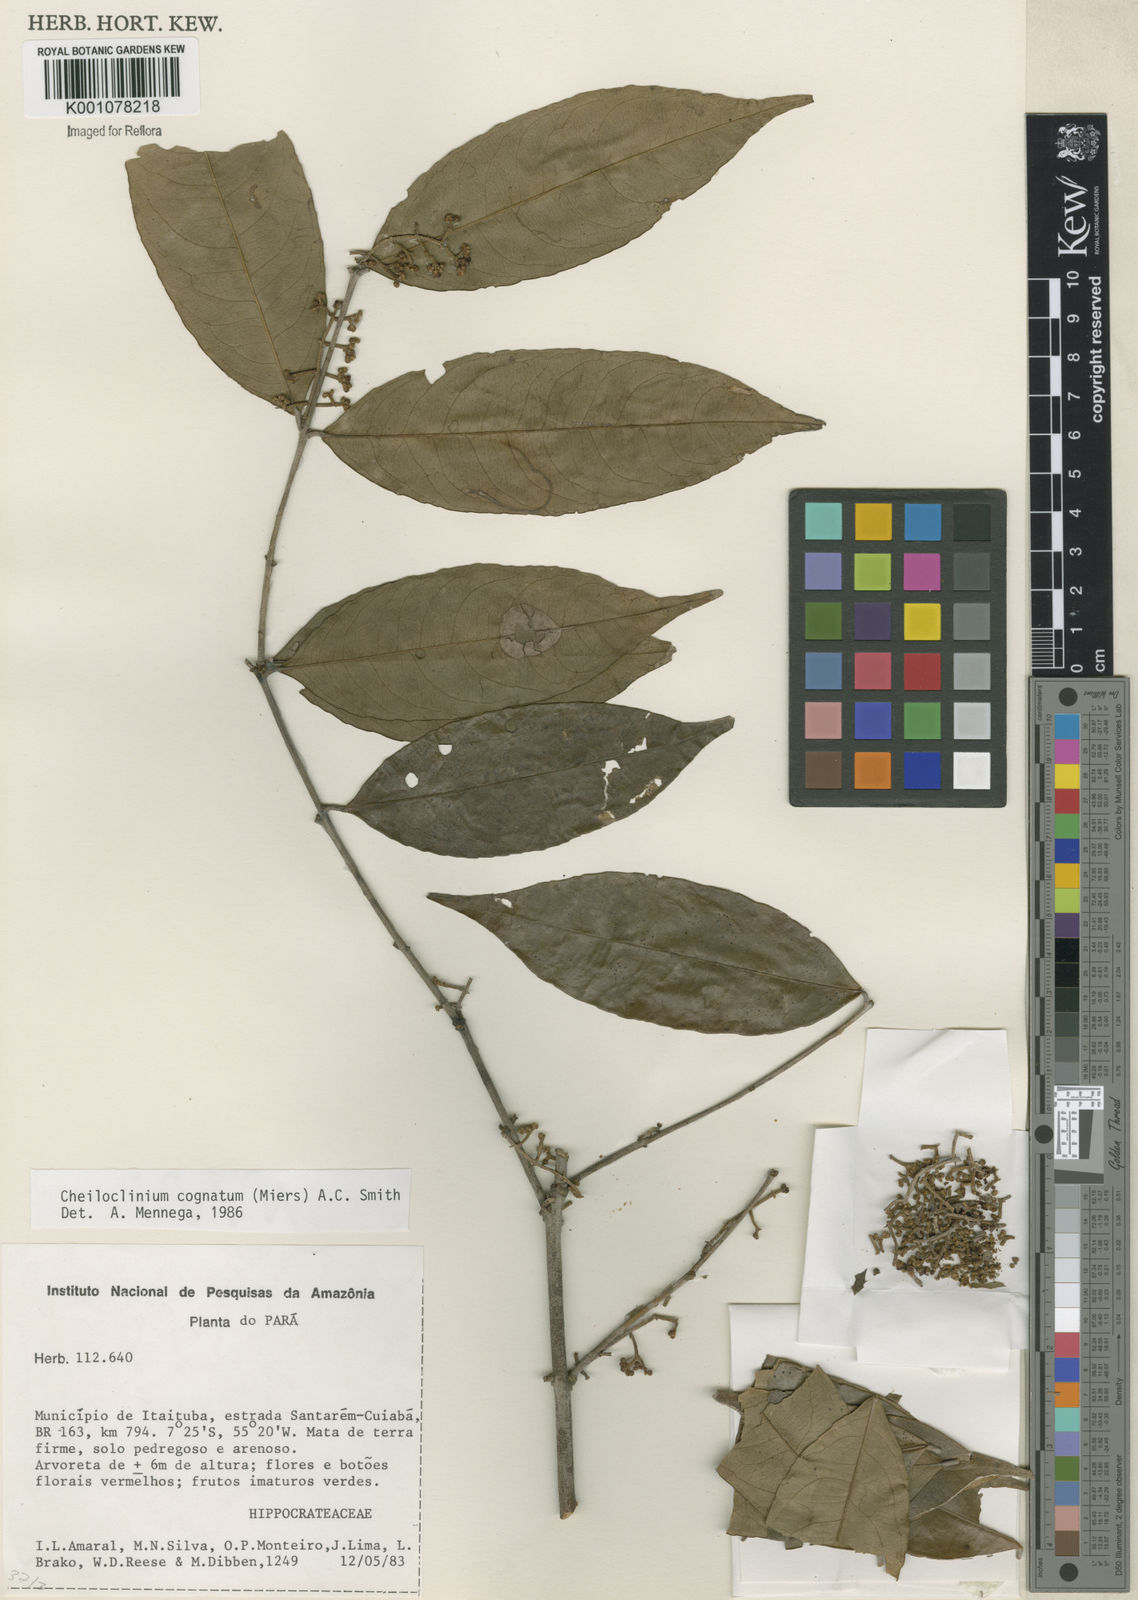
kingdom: Plantae
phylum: Tracheophyta
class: Magnoliopsida
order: Celastrales
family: Celastraceae
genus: Cheiloclinium
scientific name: Cheiloclinium cognatum
